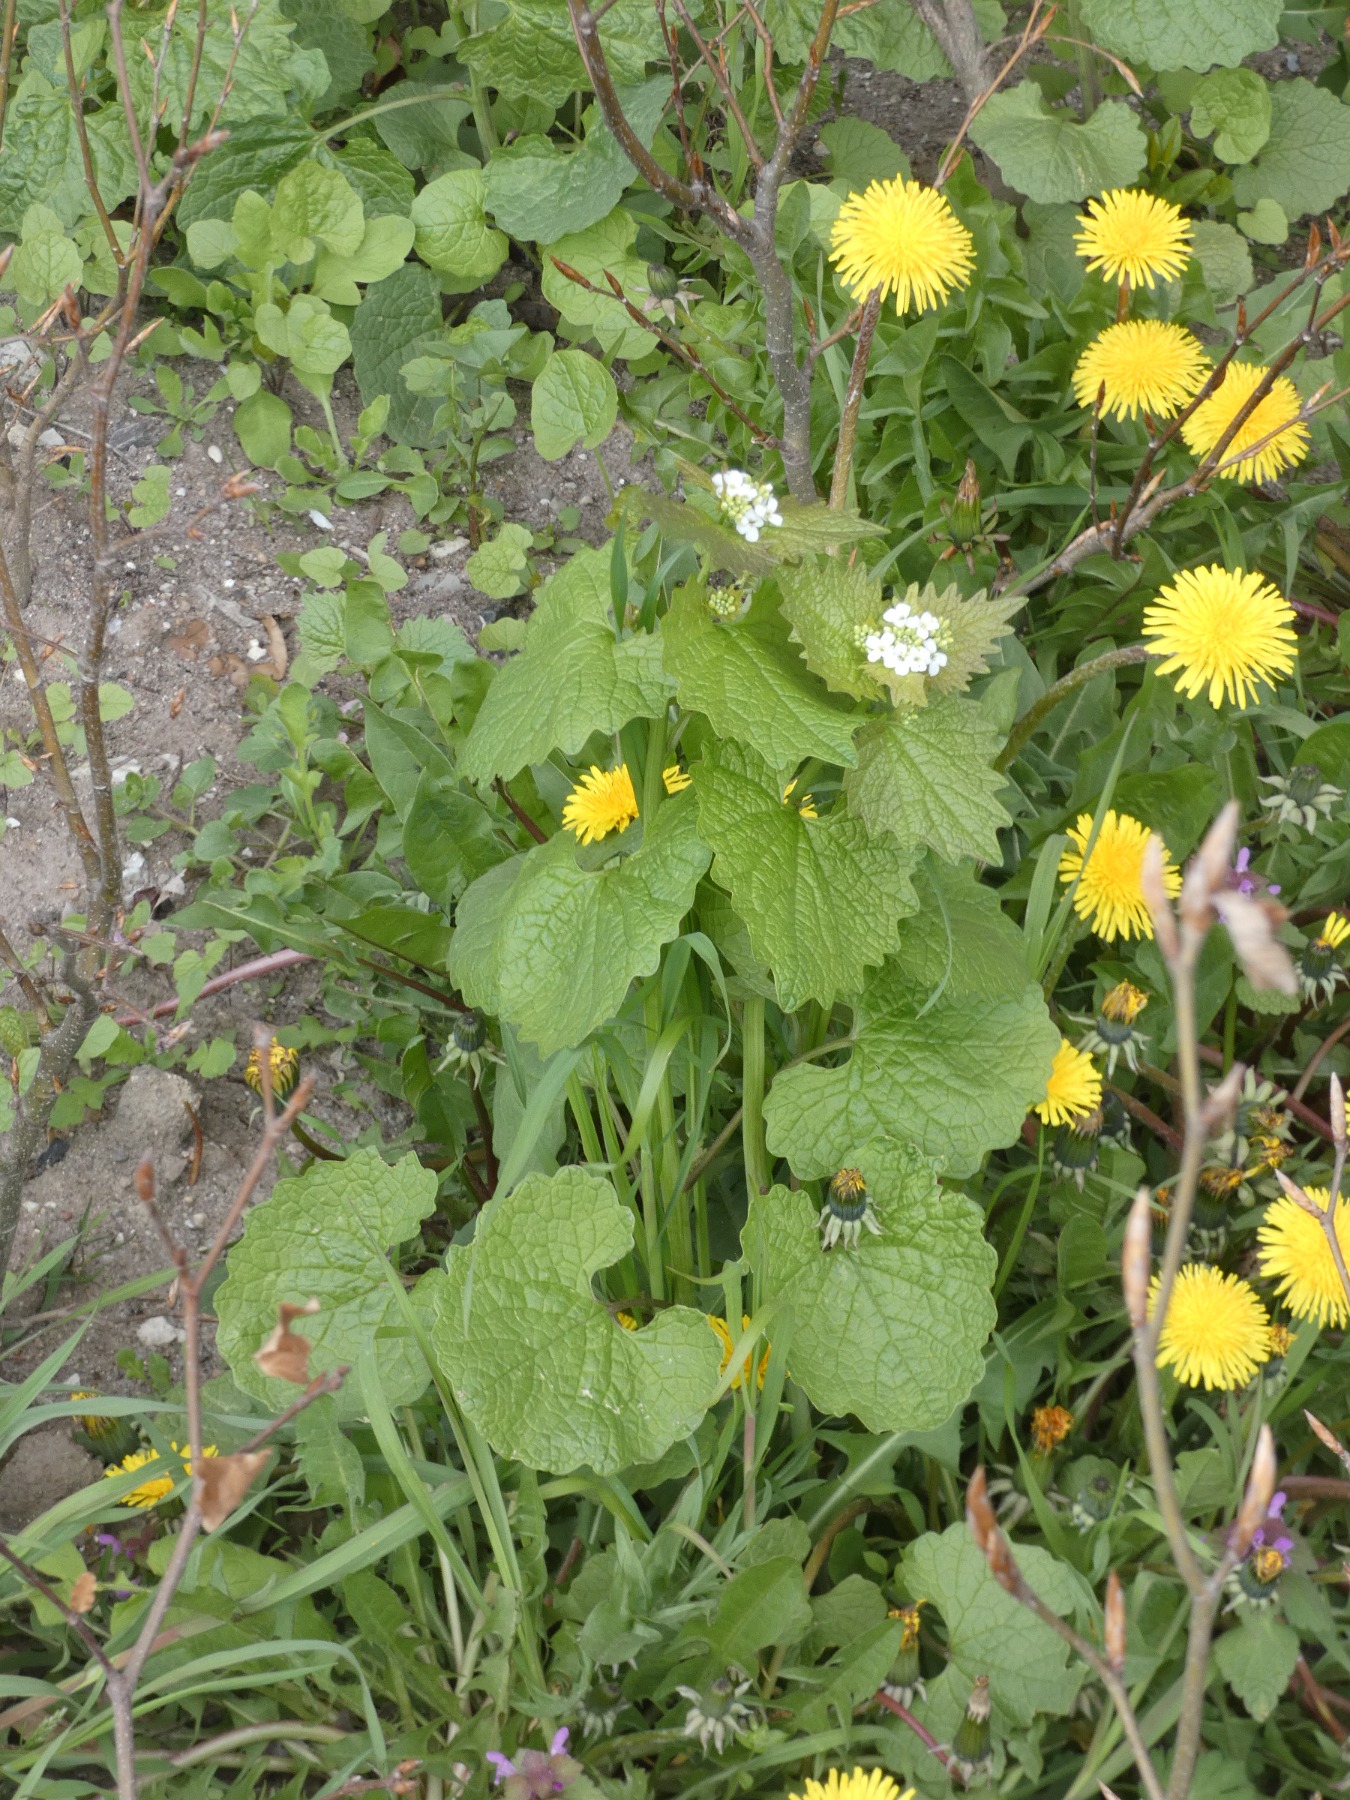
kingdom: Plantae
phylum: Tracheophyta
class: Magnoliopsida
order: Brassicales
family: Brassicaceae
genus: Alliaria
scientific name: Alliaria petiolata
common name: Løgkarse
